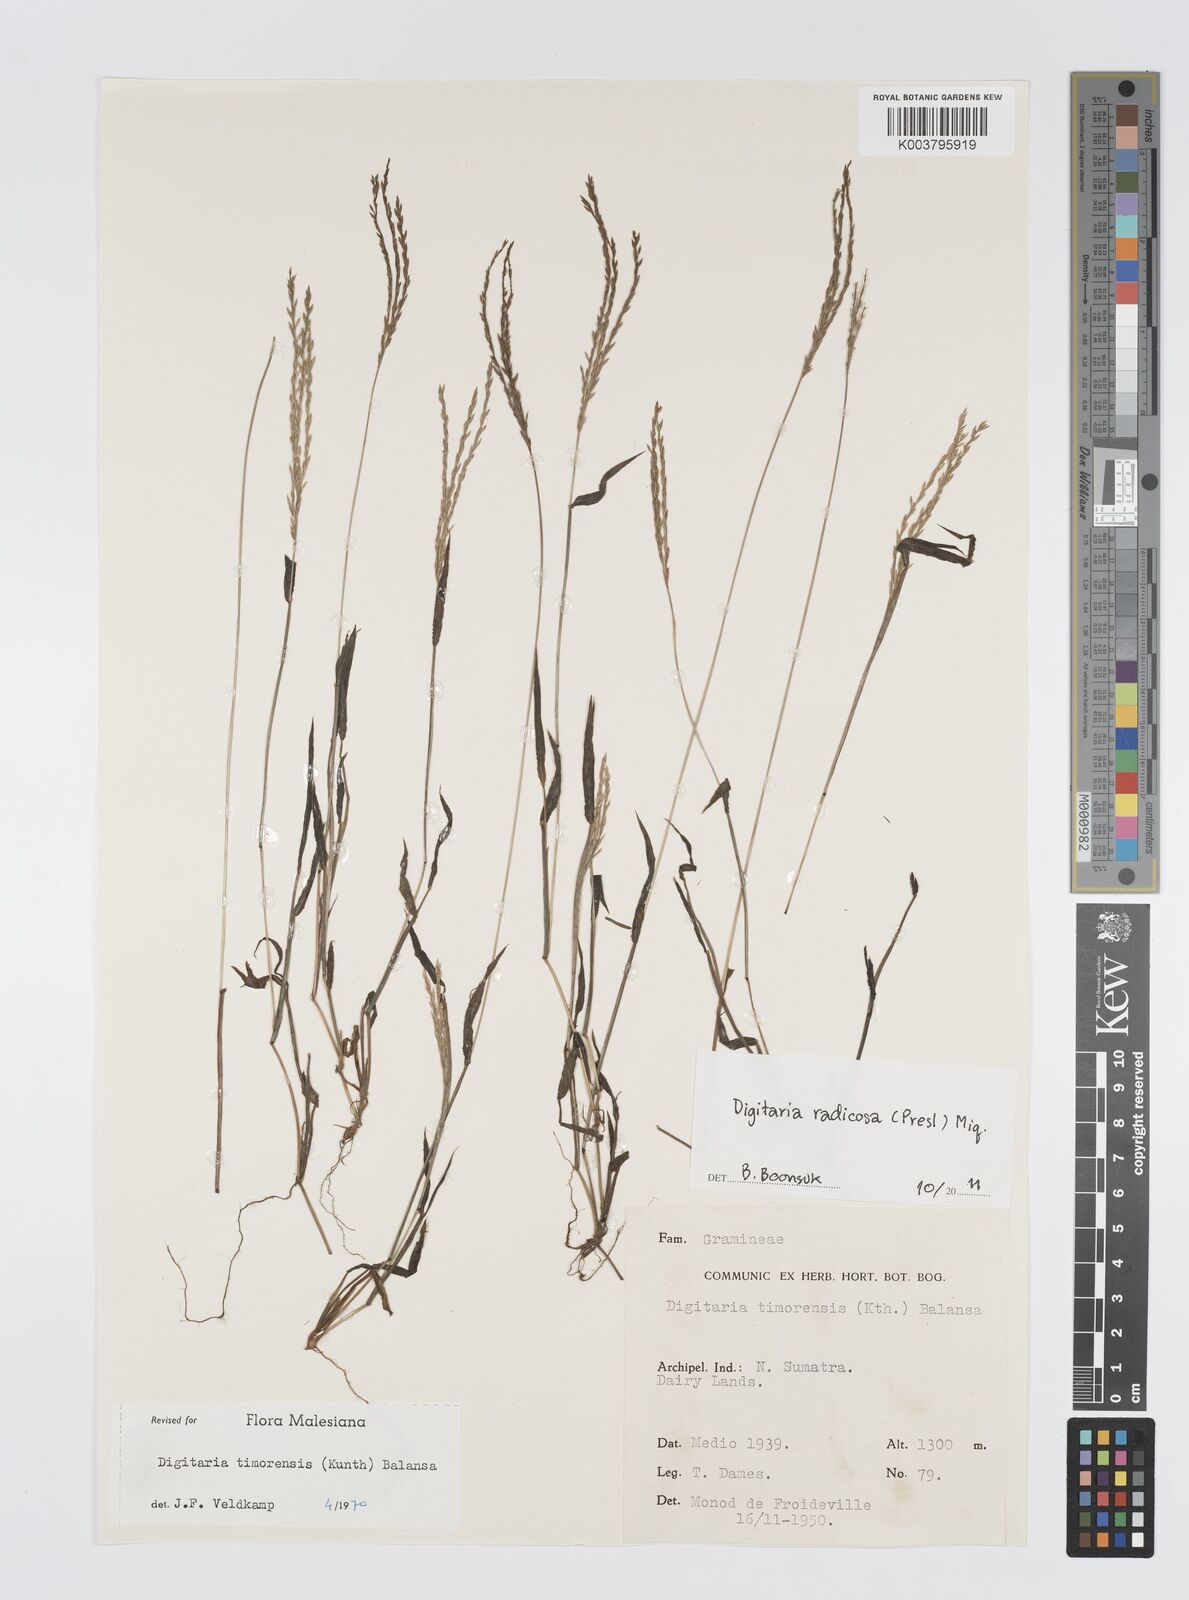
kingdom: Plantae
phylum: Tracheophyta
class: Liliopsida
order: Poales
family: Poaceae
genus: Digitaria
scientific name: Digitaria radicosa
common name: Trailing crabgrass
